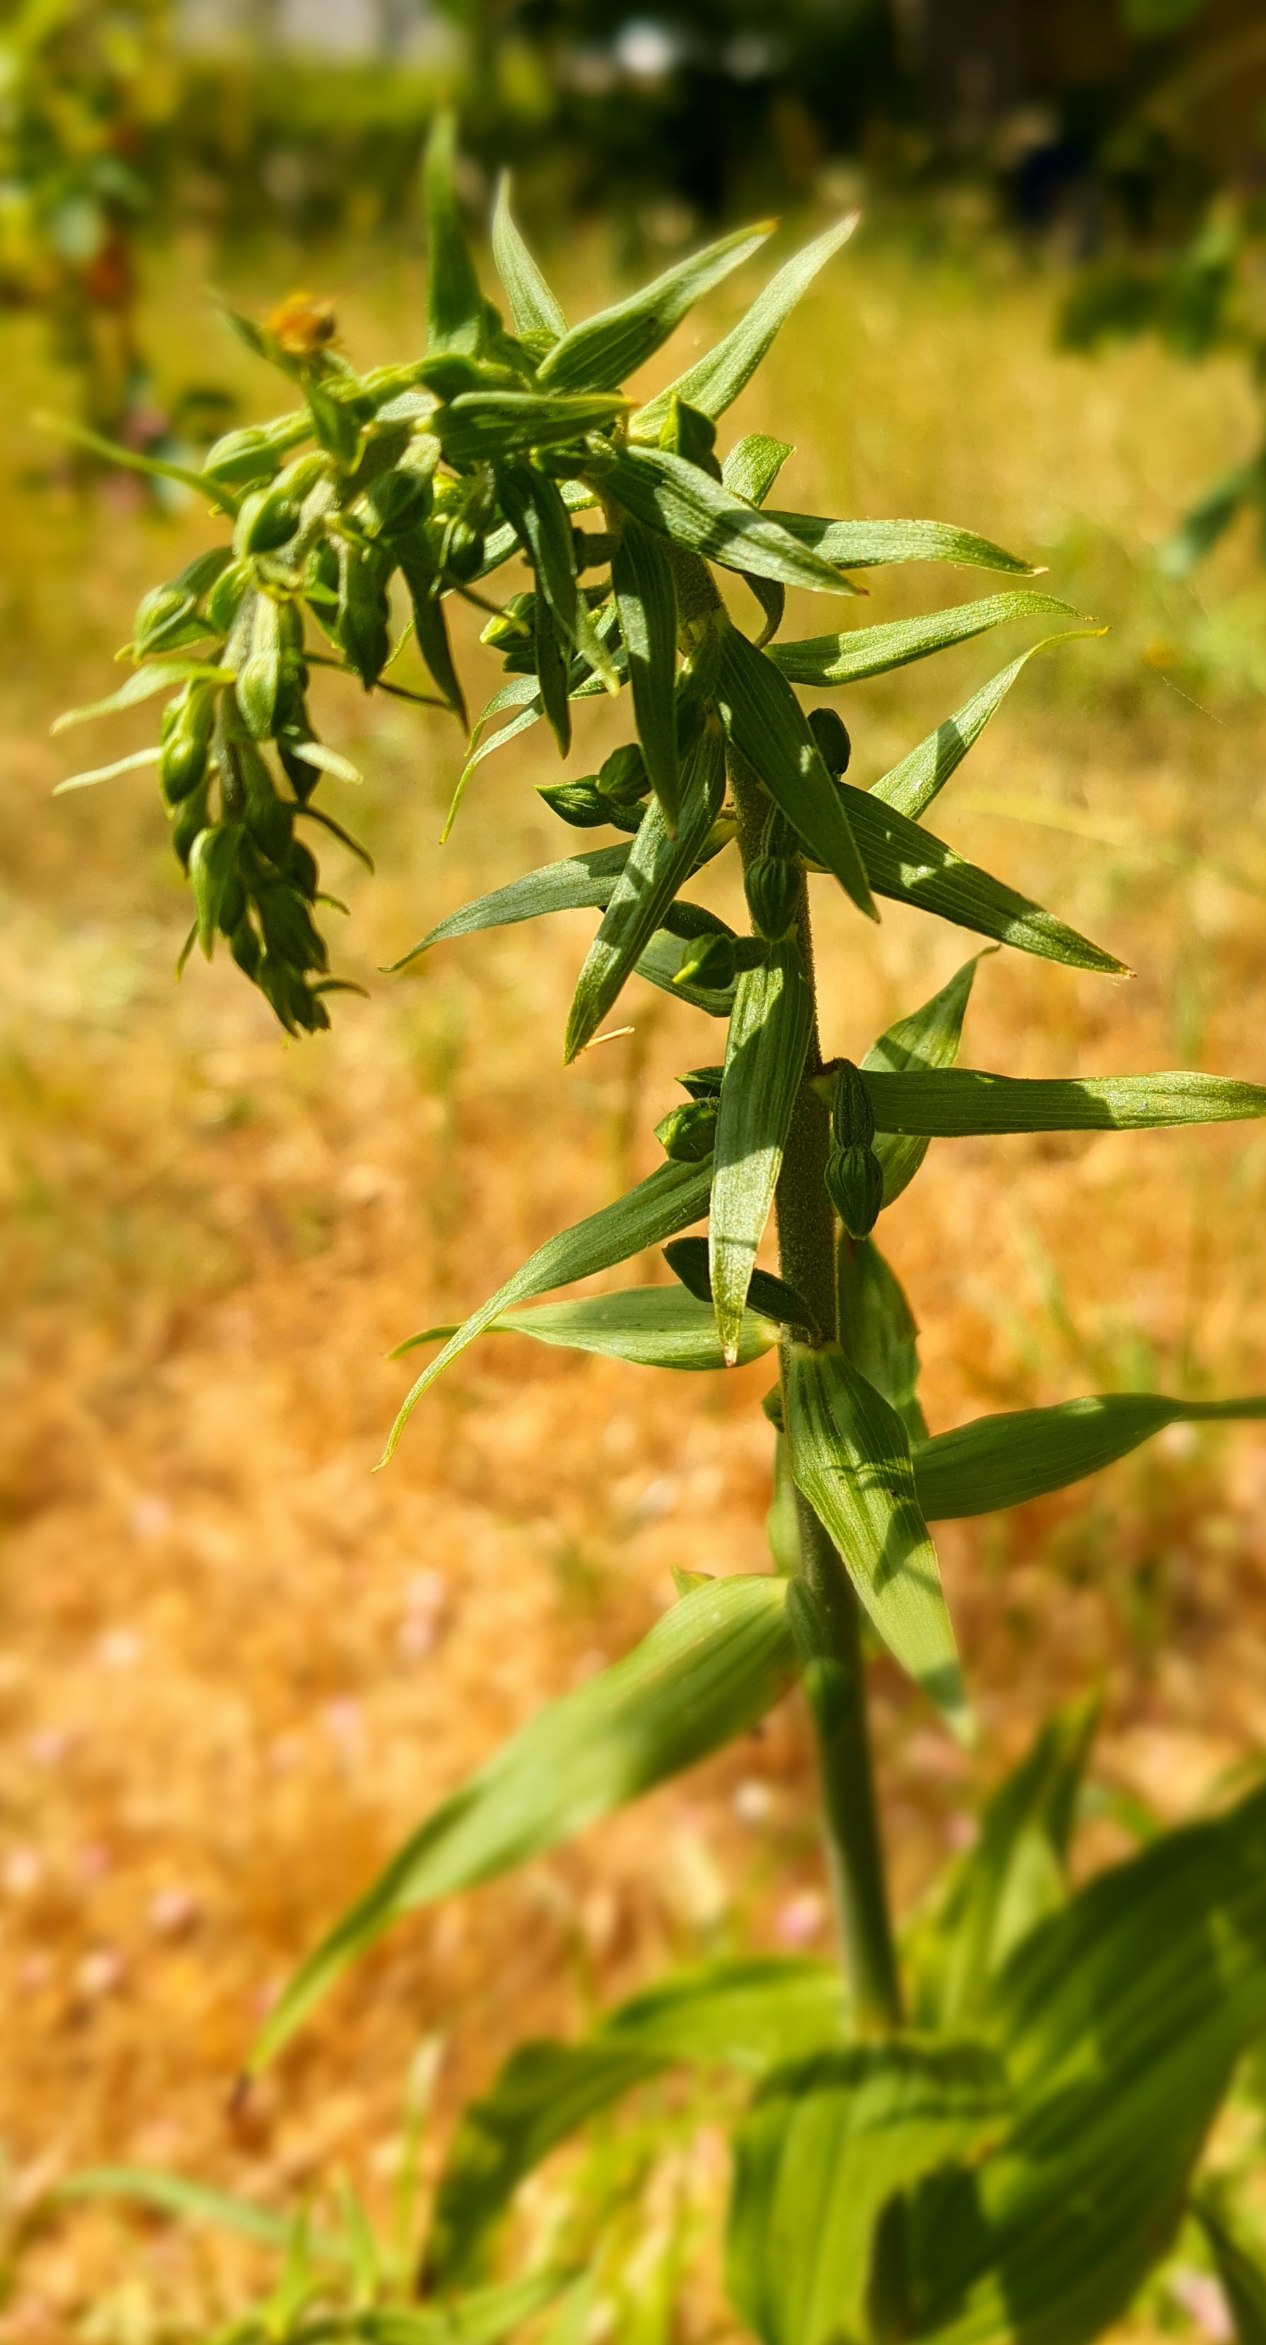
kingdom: Plantae
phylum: Tracheophyta
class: Liliopsida
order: Asparagales
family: Orchidaceae
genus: Epipactis
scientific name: Epipactis
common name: Hullæbeslægten
